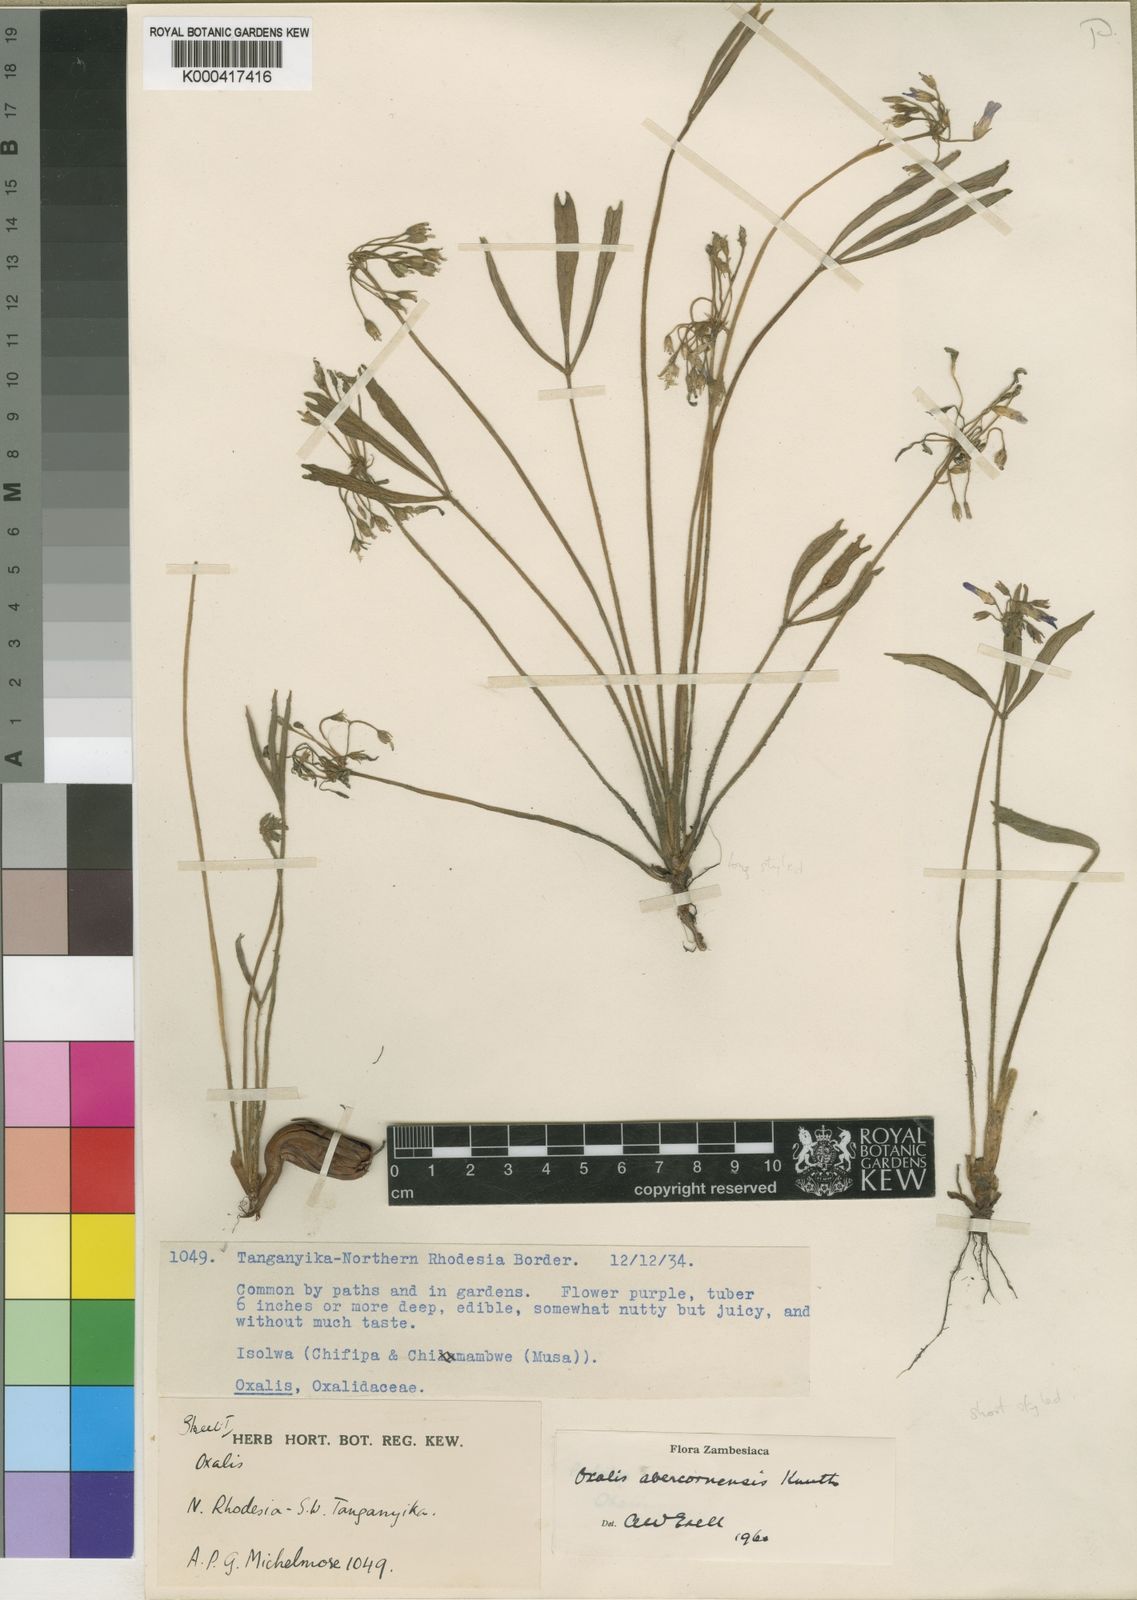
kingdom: Plantae
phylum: Tracheophyta
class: Magnoliopsida
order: Oxalidales
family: Oxalidaceae
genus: Oxalis
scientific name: Oxalis abercornensis
